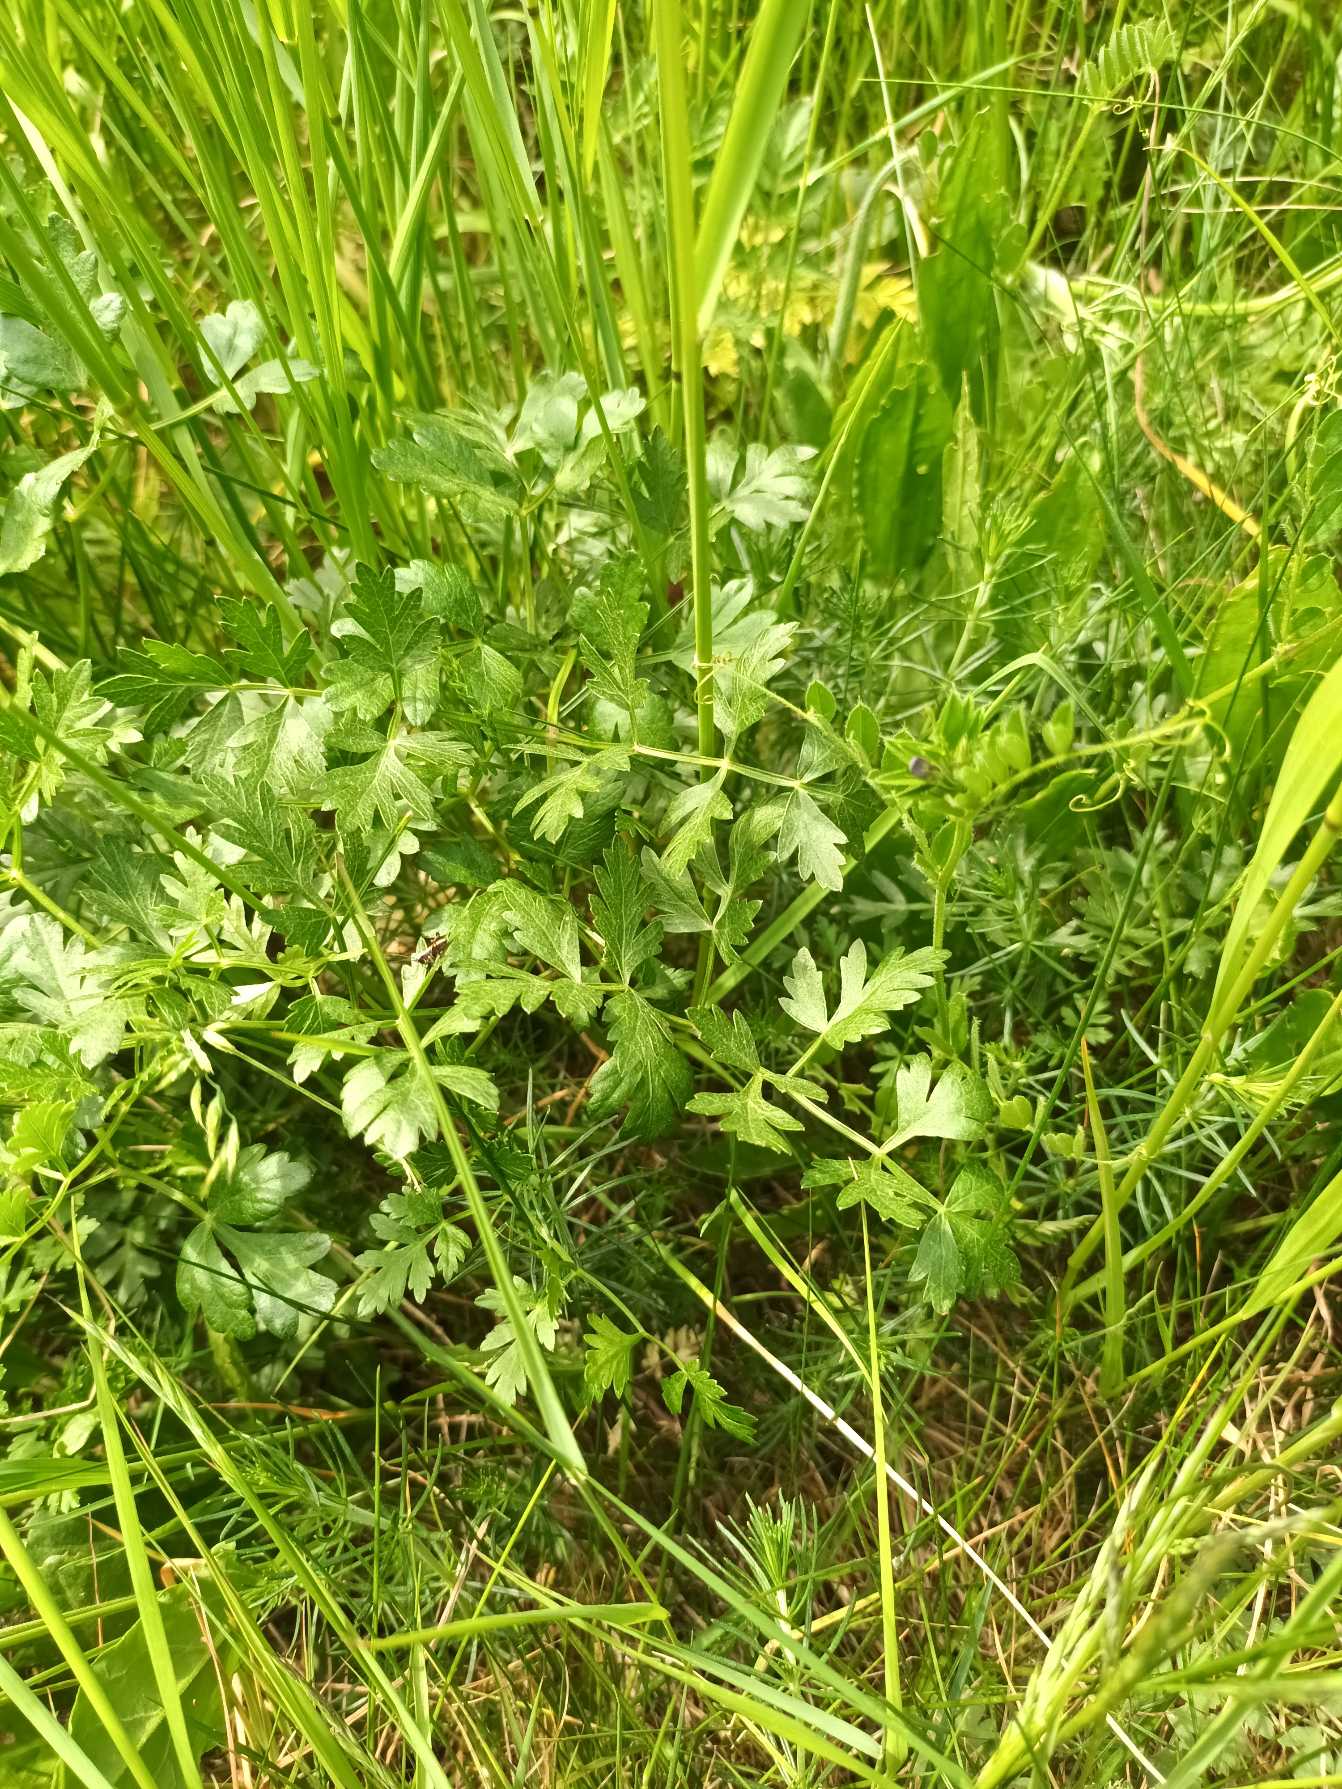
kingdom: Plantae
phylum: Tracheophyta
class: Magnoliopsida
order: Apiales
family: Apiaceae
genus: Oreoselinum
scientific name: Oreoselinum nigrum
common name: Bakke-svovlrod
